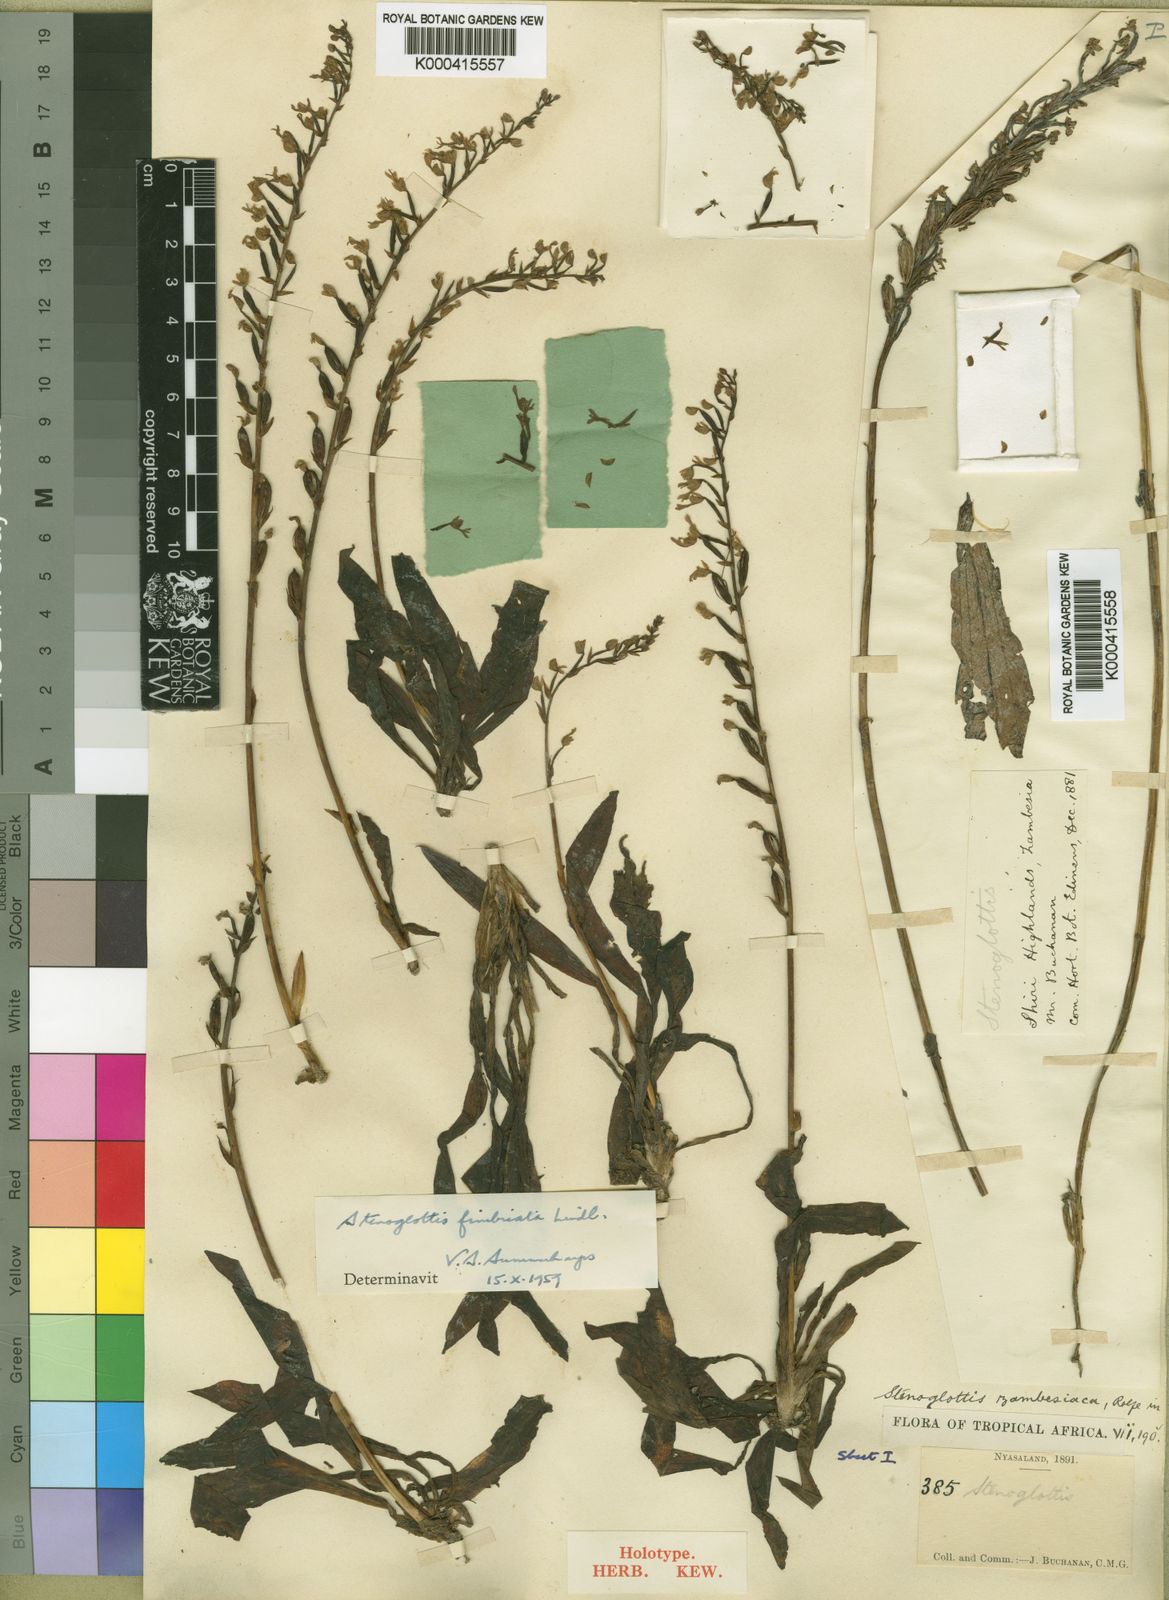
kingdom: Plantae
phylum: Tracheophyta
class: Liliopsida
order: Asparagales
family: Orchidaceae
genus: Stenoglottis
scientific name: Stenoglottis fimbriata
